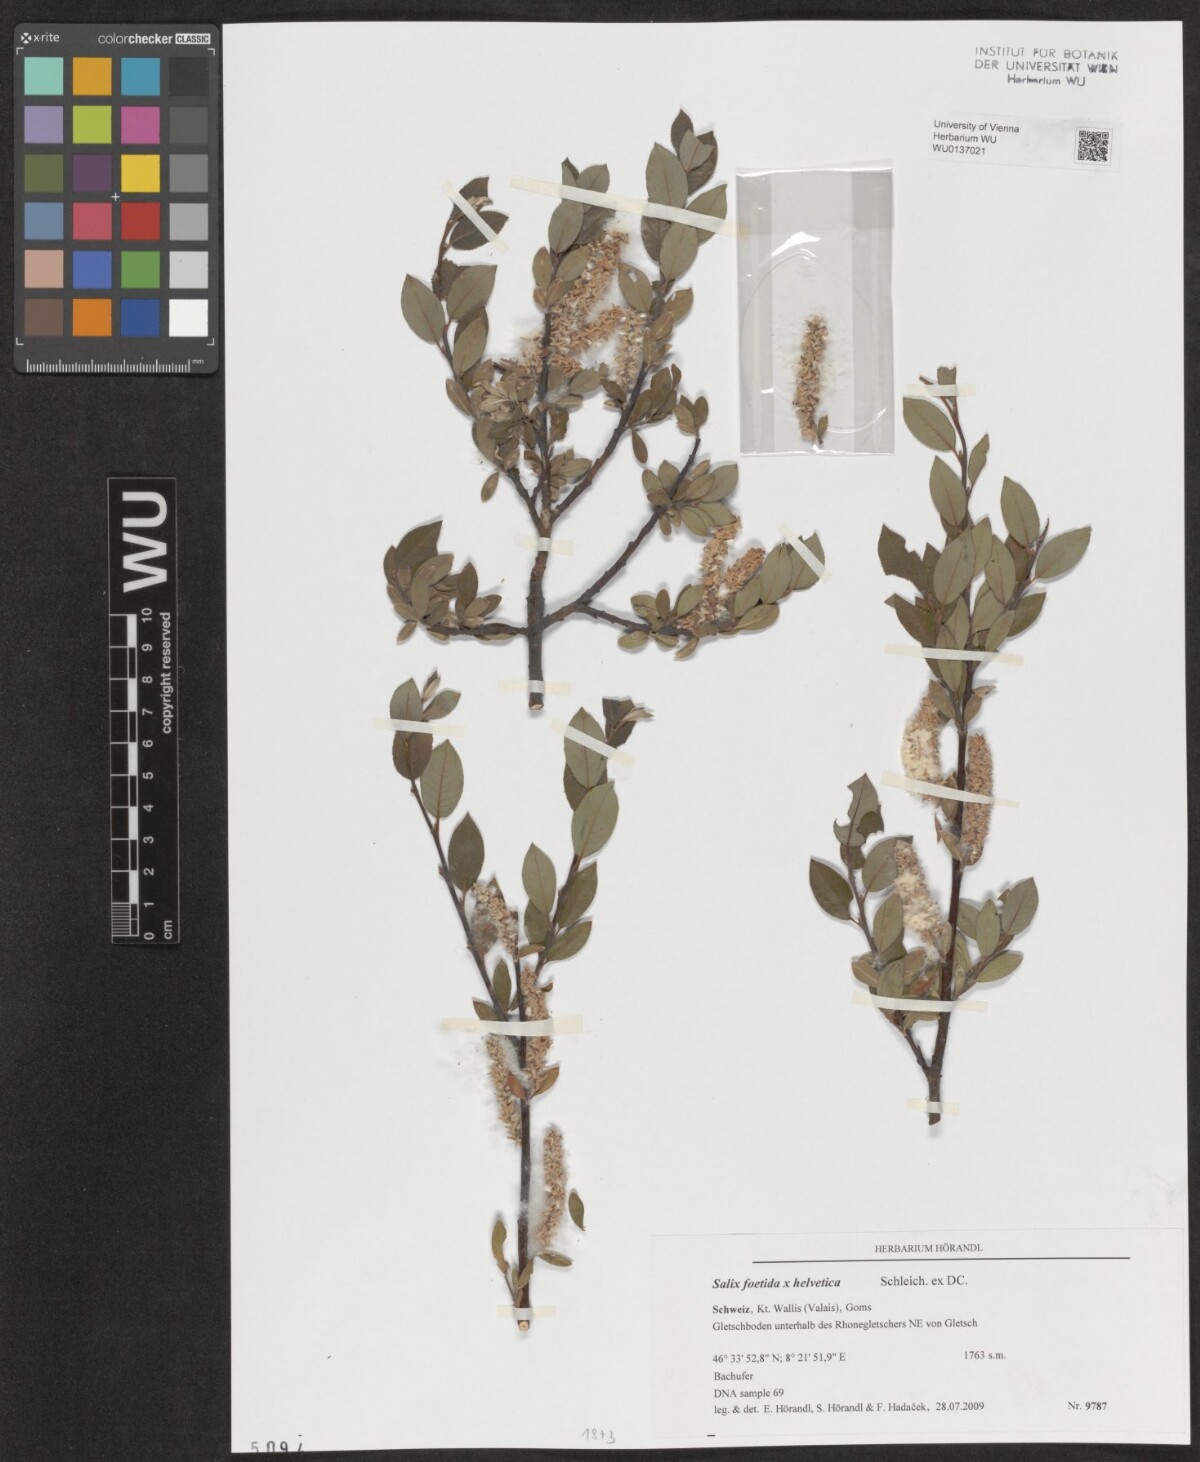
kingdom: Plantae
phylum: Tracheophyta
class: Magnoliopsida
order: Malpighiales
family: Salicaceae
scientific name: Salicaceae
